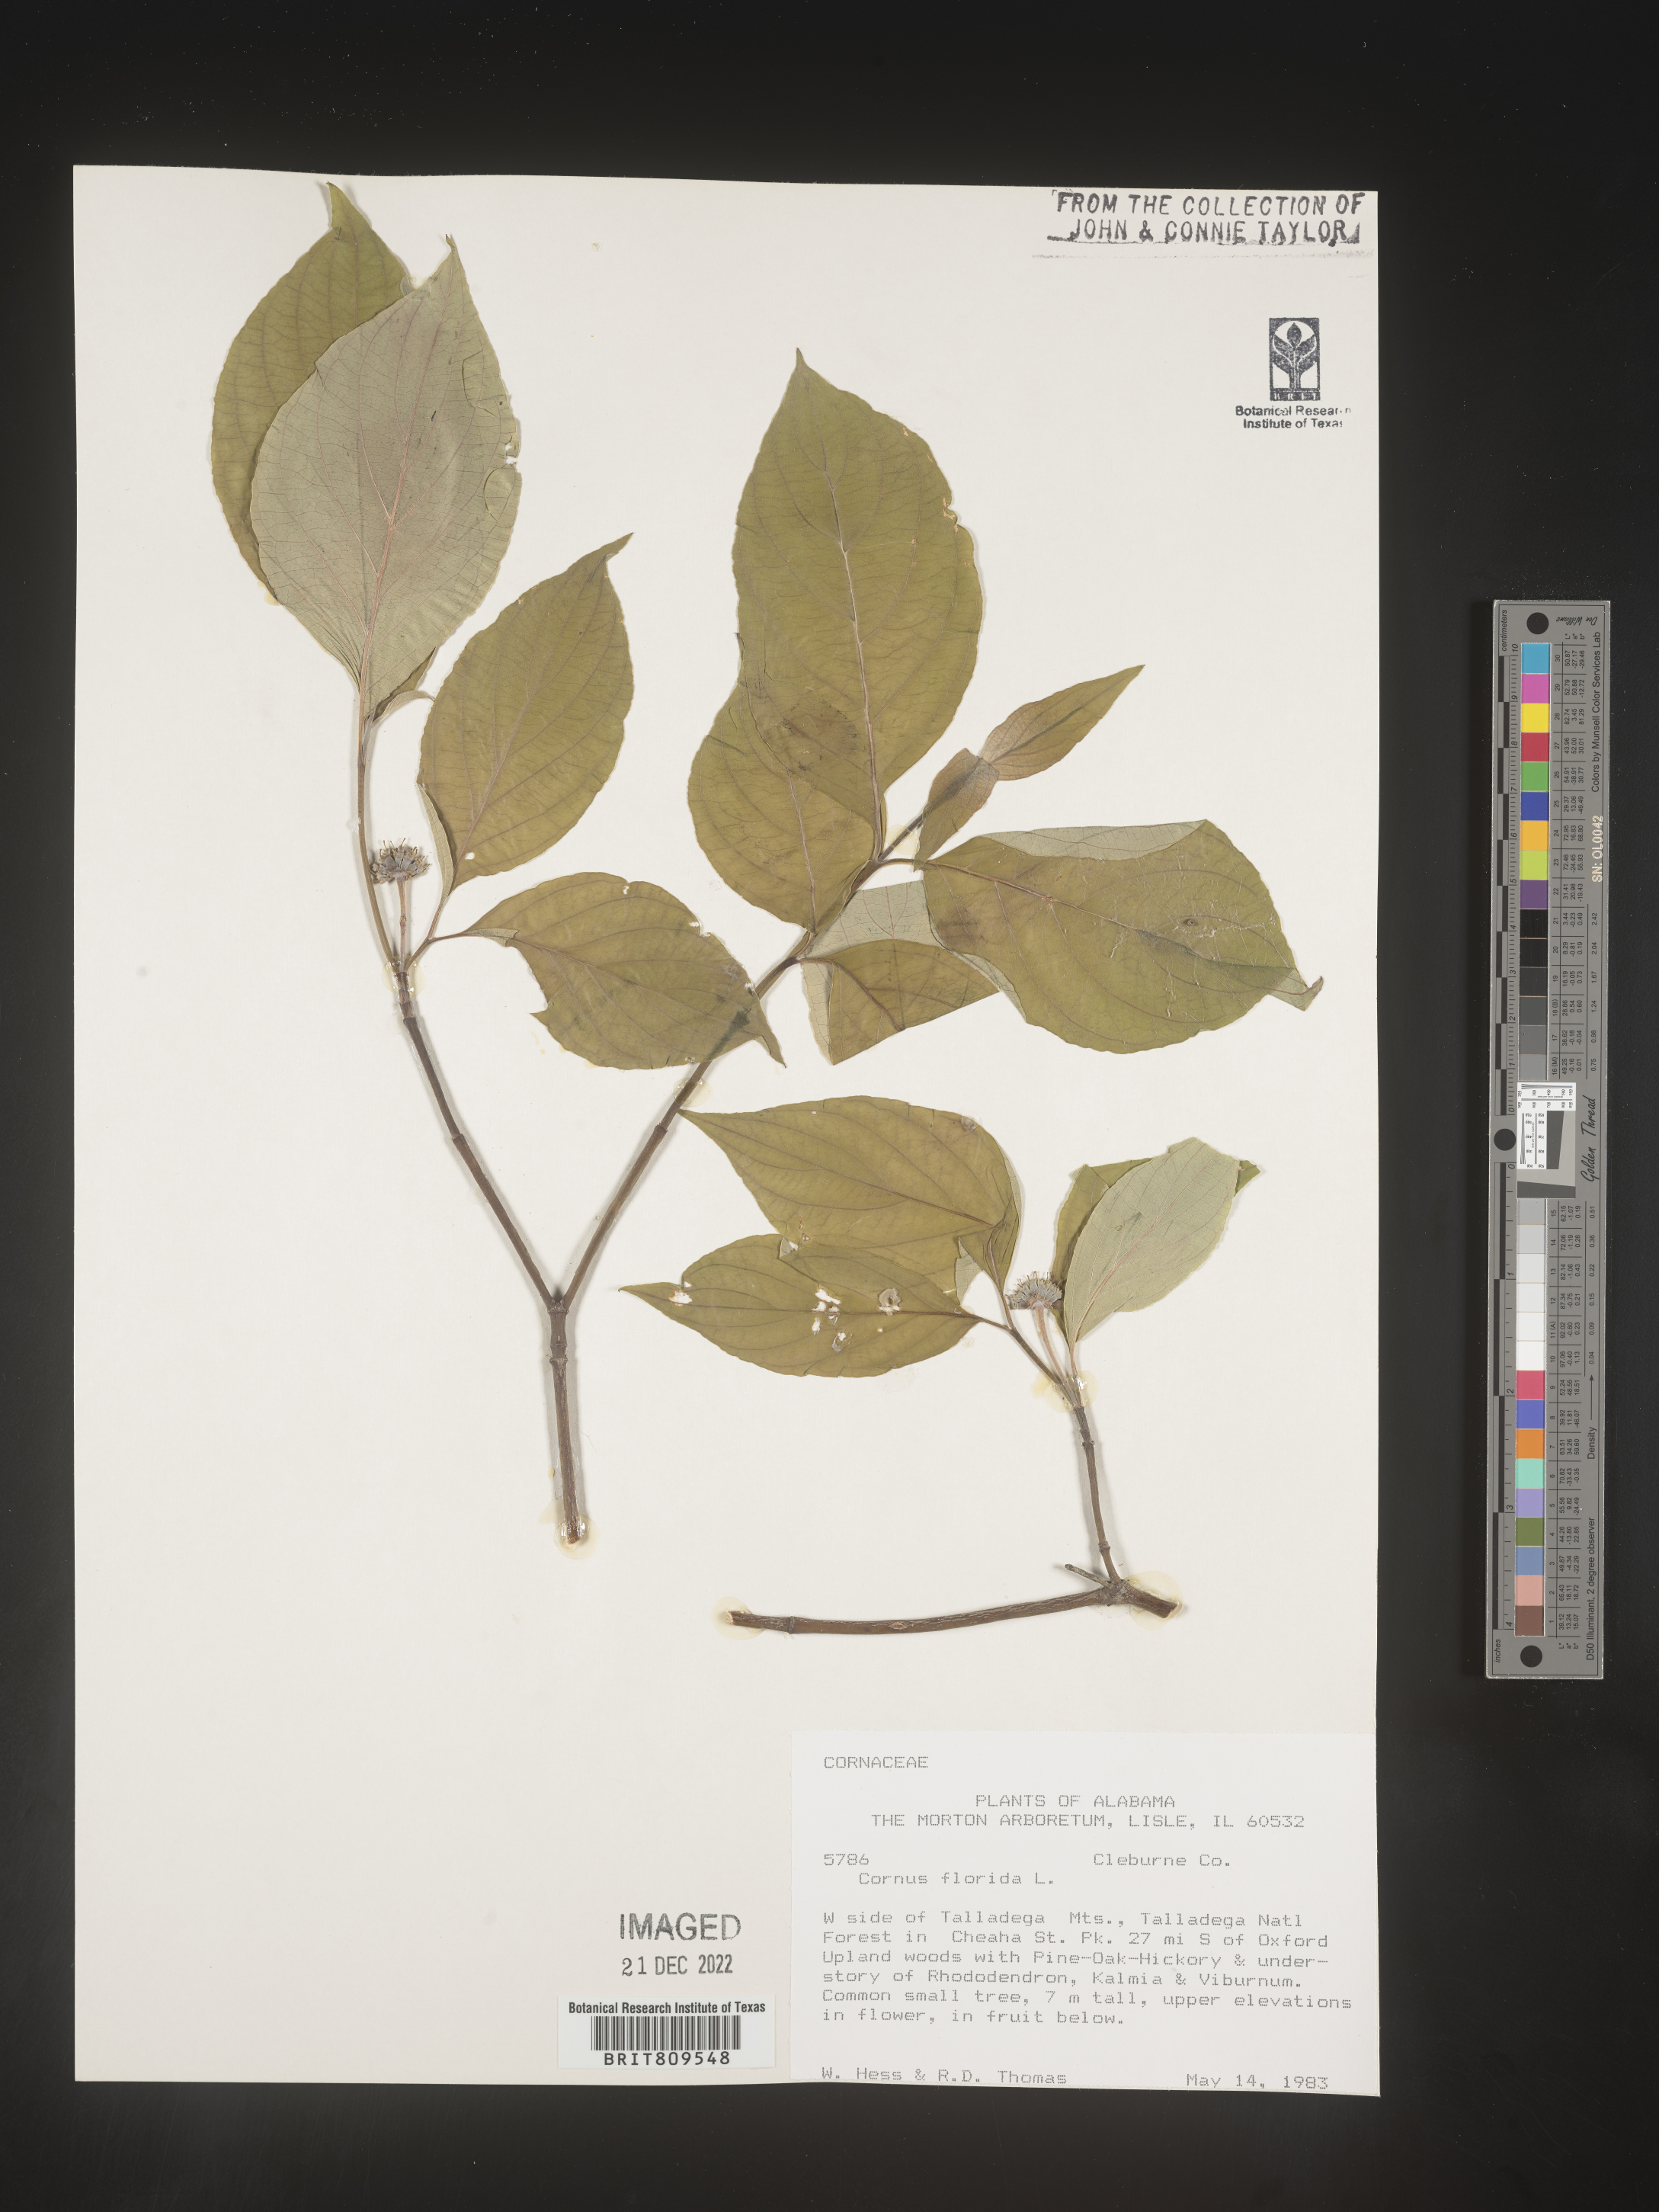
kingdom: Plantae
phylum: Tracheophyta
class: Magnoliopsida
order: Cornales
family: Cornaceae
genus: Cornus
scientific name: Cornus florida
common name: Flowering dogwood
